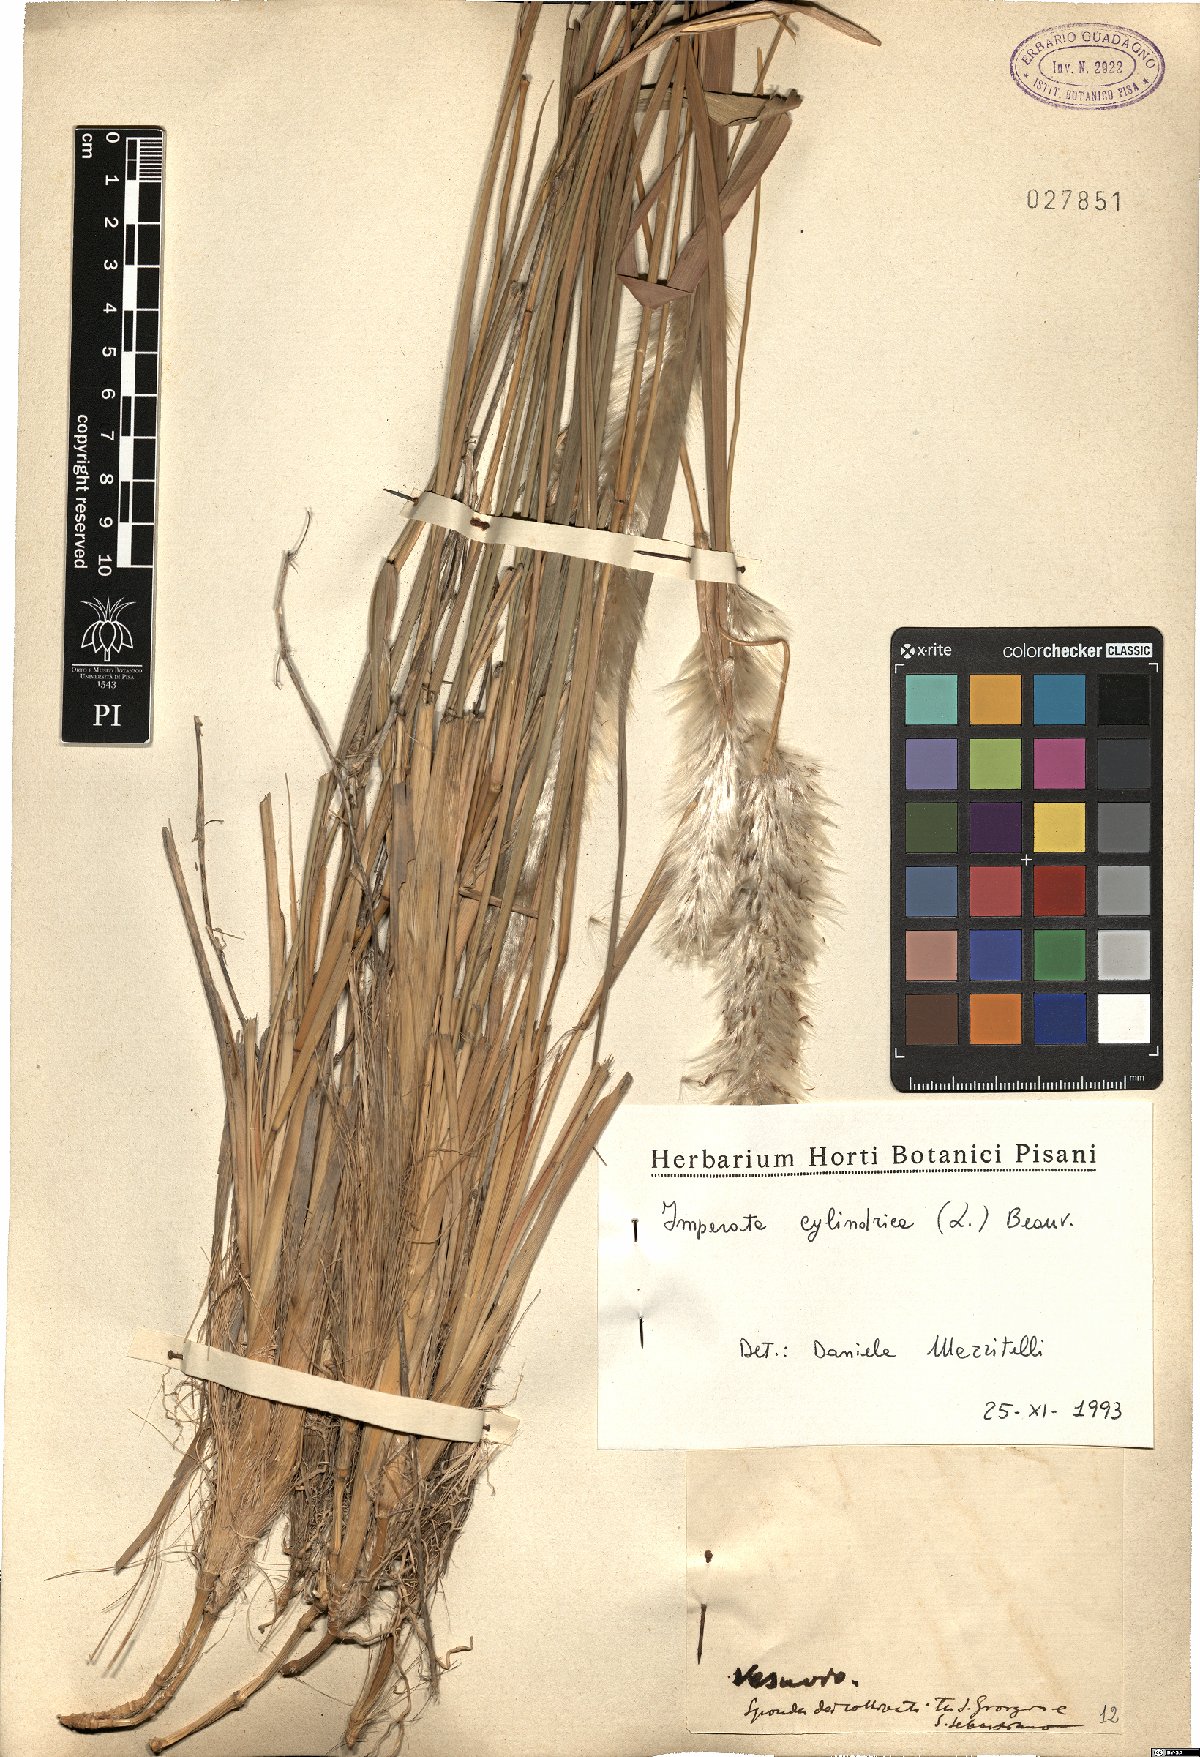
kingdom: Plantae
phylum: Tracheophyta
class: Liliopsida
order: Poales
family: Poaceae
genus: Imperata
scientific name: Imperata cylindrica
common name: Cogongrass
